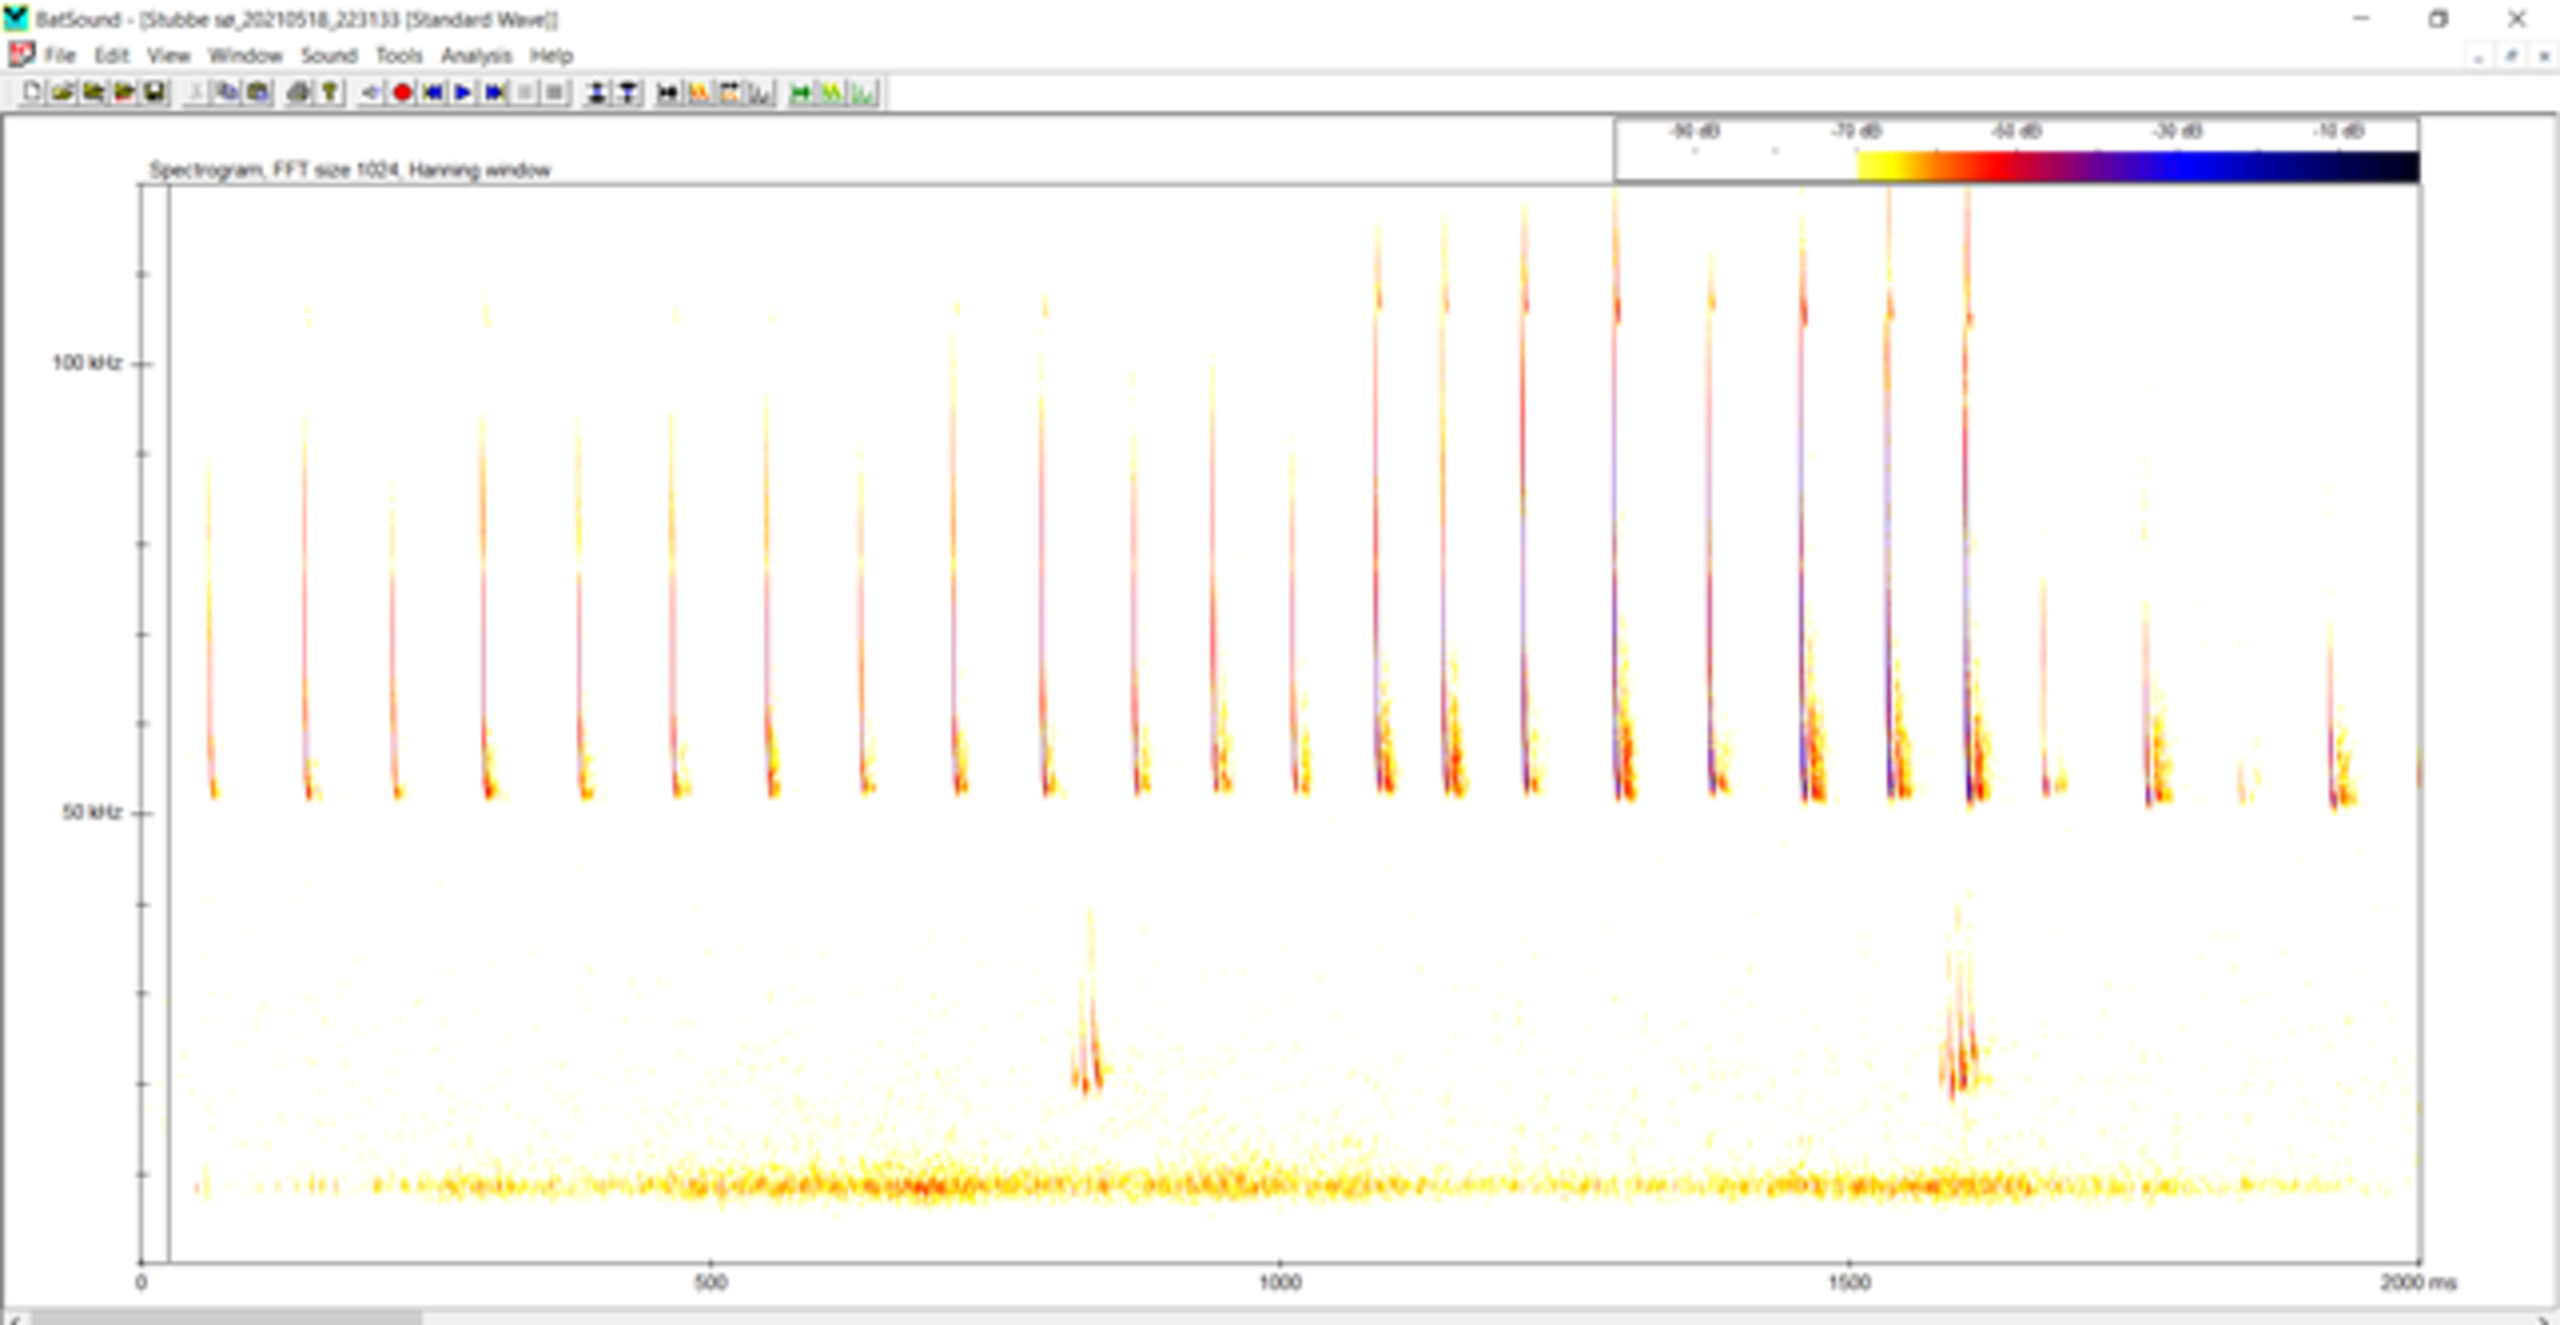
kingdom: Animalia
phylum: Chordata
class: Mammalia
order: Chiroptera
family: Vespertilionidae
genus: Pipistrellus
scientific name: Pipistrellus pygmaeus
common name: Dværgflagermus
